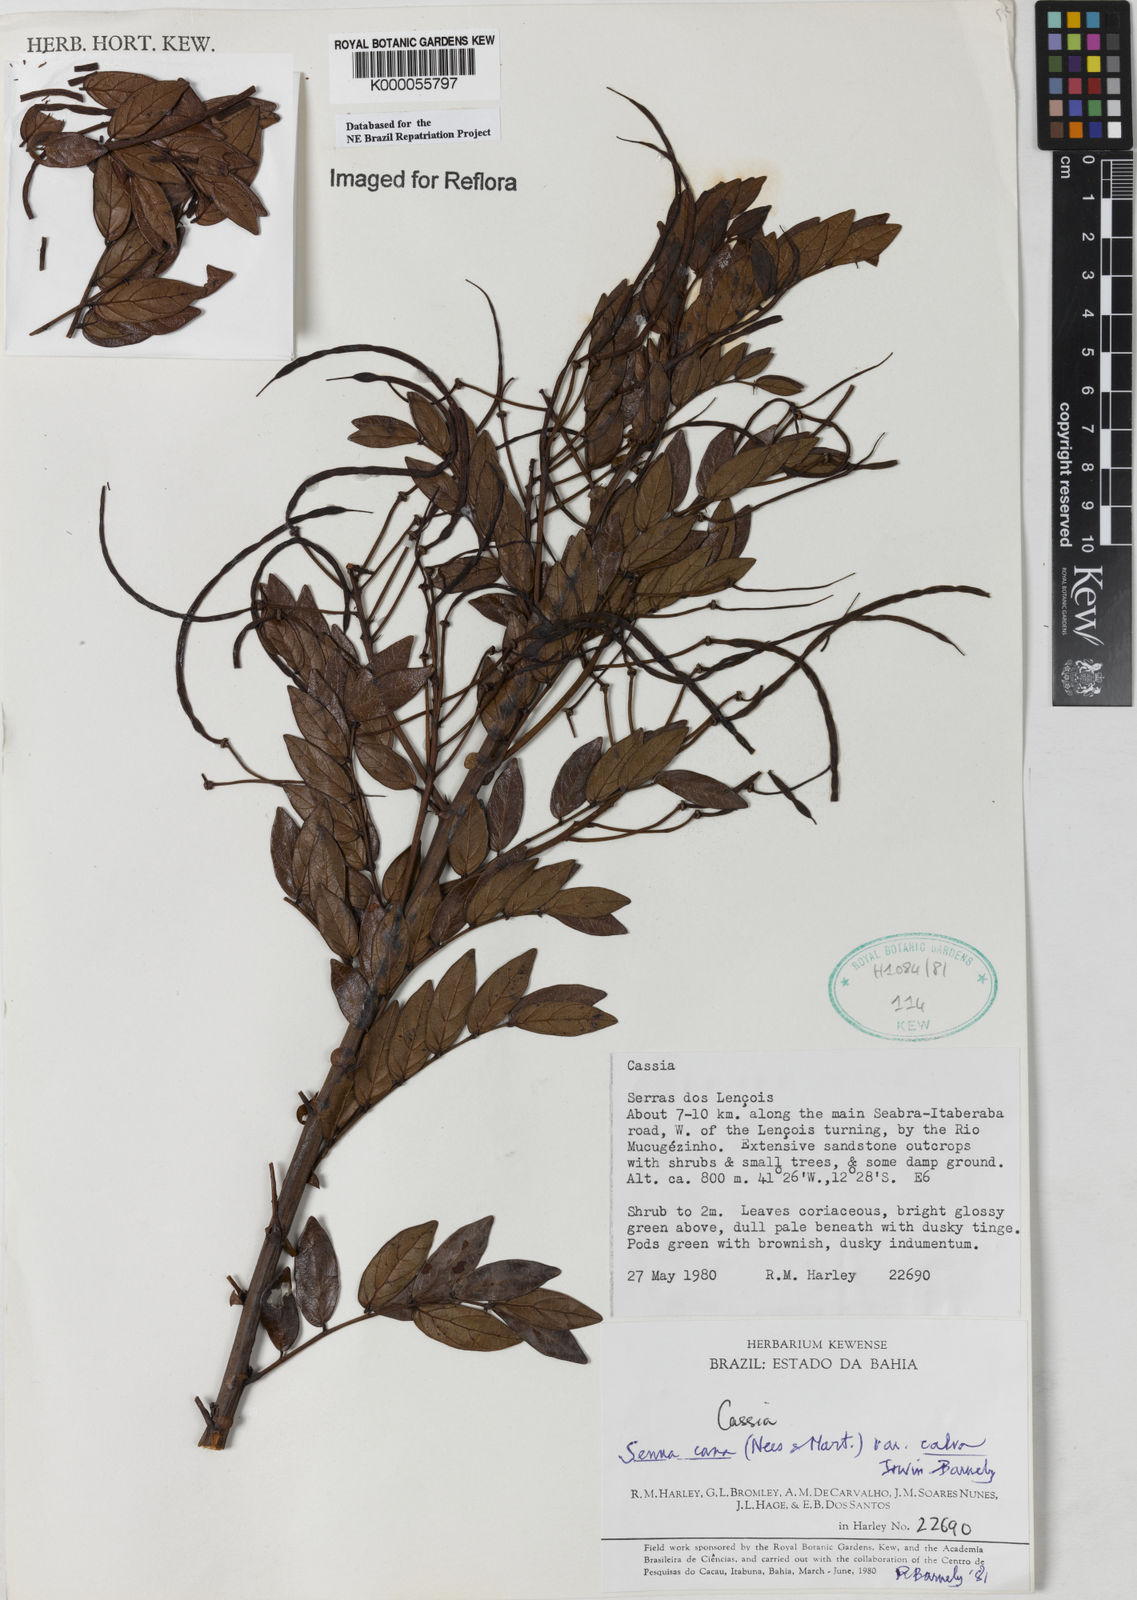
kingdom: Plantae
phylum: Tracheophyta
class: Magnoliopsida
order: Fabales
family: Fabaceae
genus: Senna
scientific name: Senna cana
